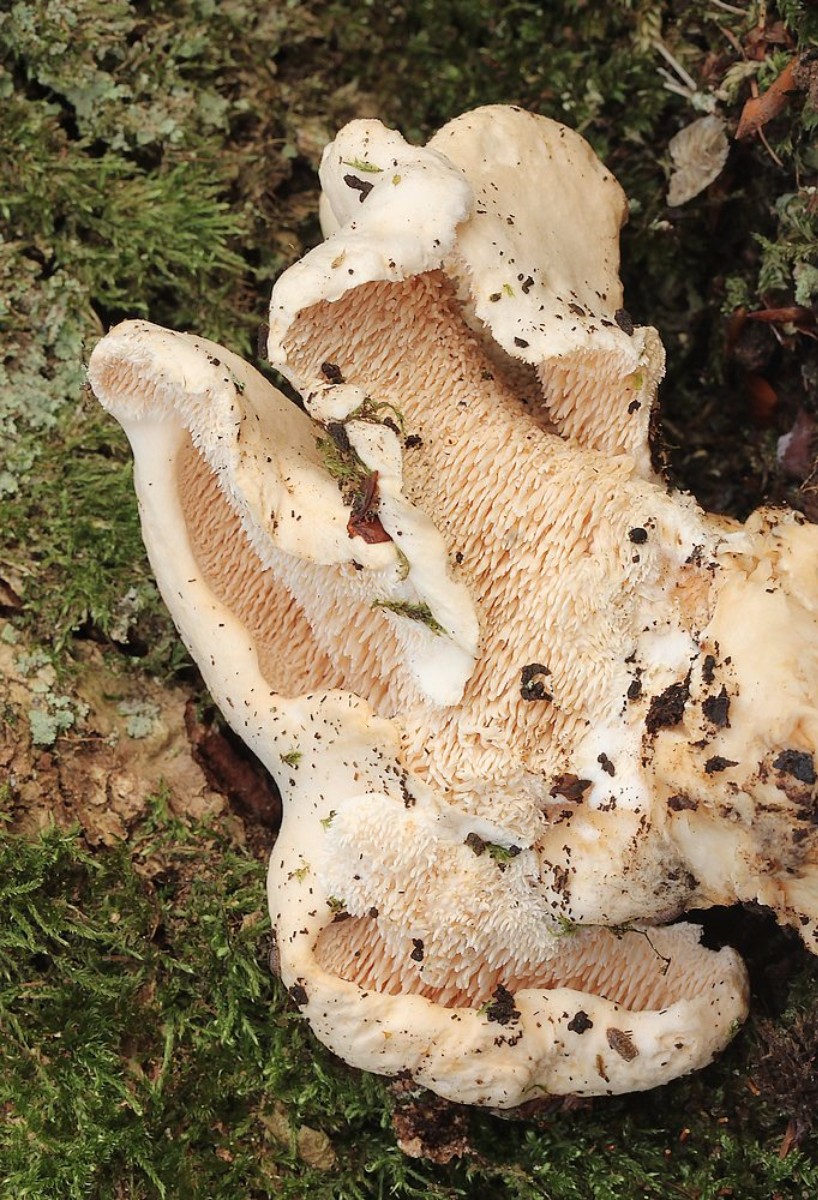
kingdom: Fungi
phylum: Basidiomycota
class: Agaricomycetes
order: Cantharellales
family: Hydnaceae
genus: Hydnum
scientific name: Hydnum repandum
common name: almindelig pigsvamp
